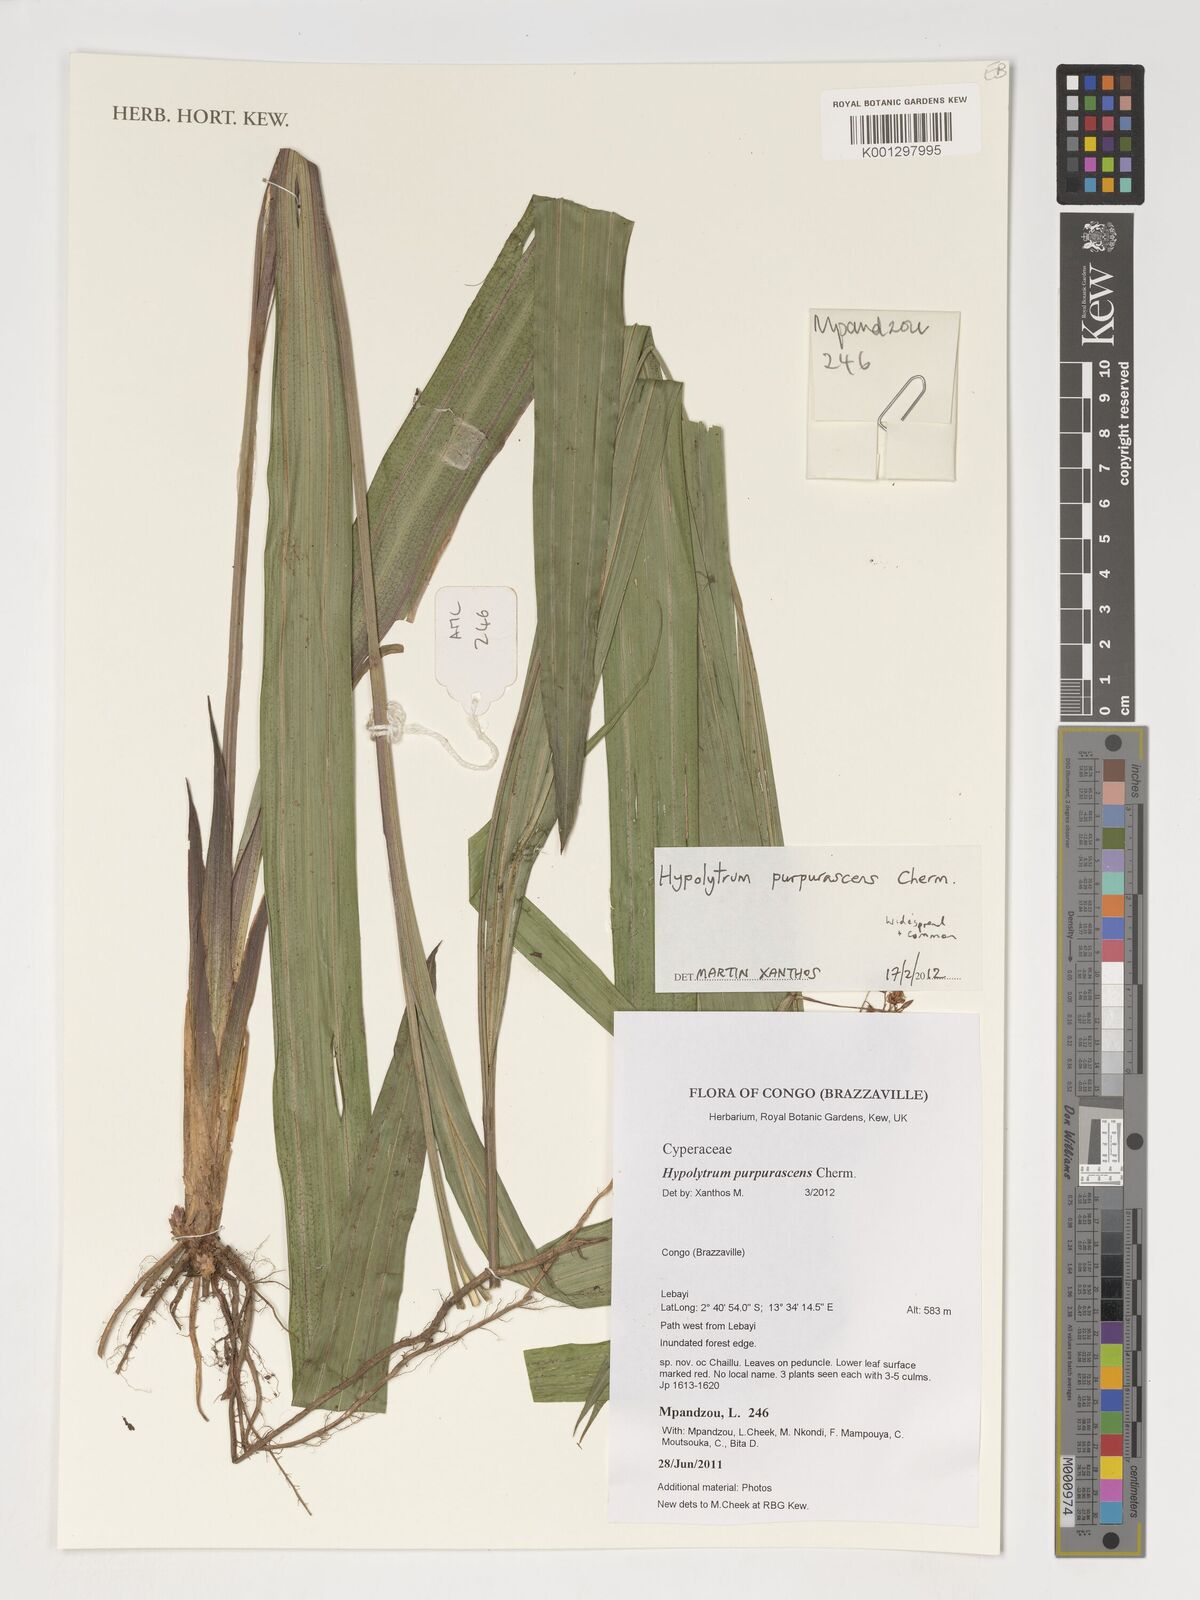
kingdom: Plantae
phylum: Tracheophyta
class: Liliopsida
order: Poales
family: Cyperaceae
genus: Hypolytrum
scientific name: Hypolytrum purpurascens
